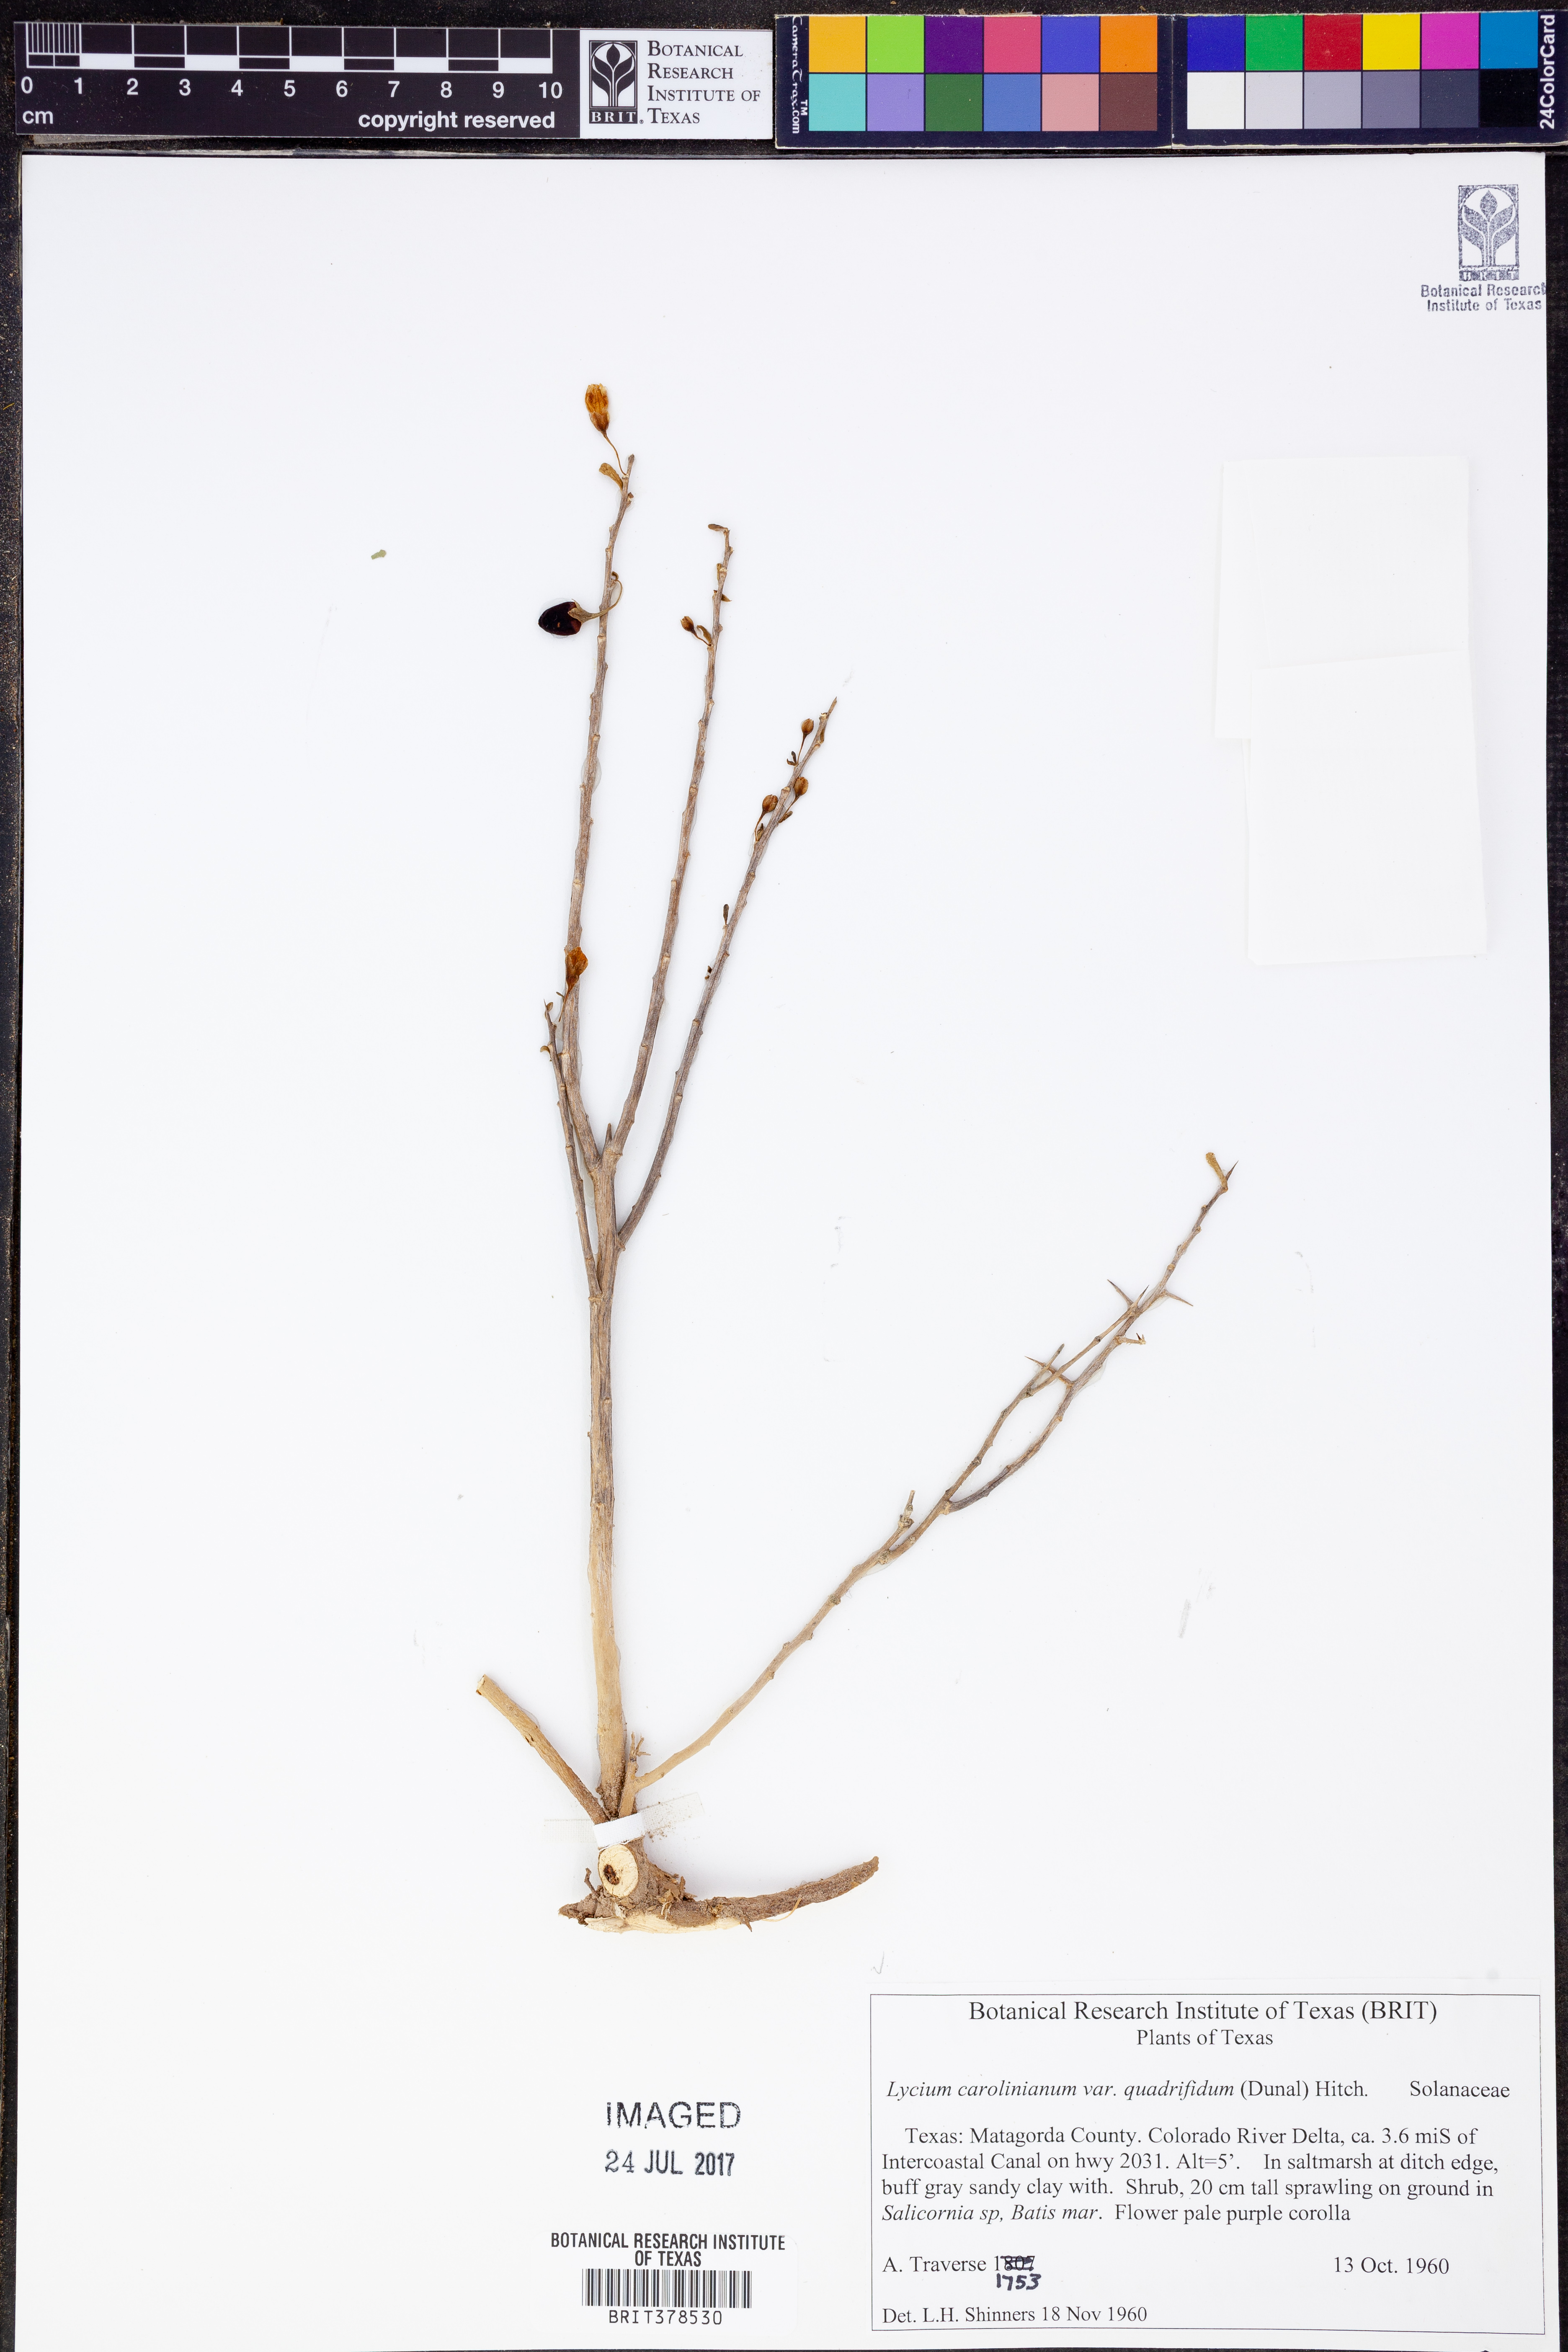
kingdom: Plantae
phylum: Tracheophyta
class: Magnoliopsida
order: Solanales
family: Solanaceae
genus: Lycium
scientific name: Lycium carolinianum
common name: Christmasberry
